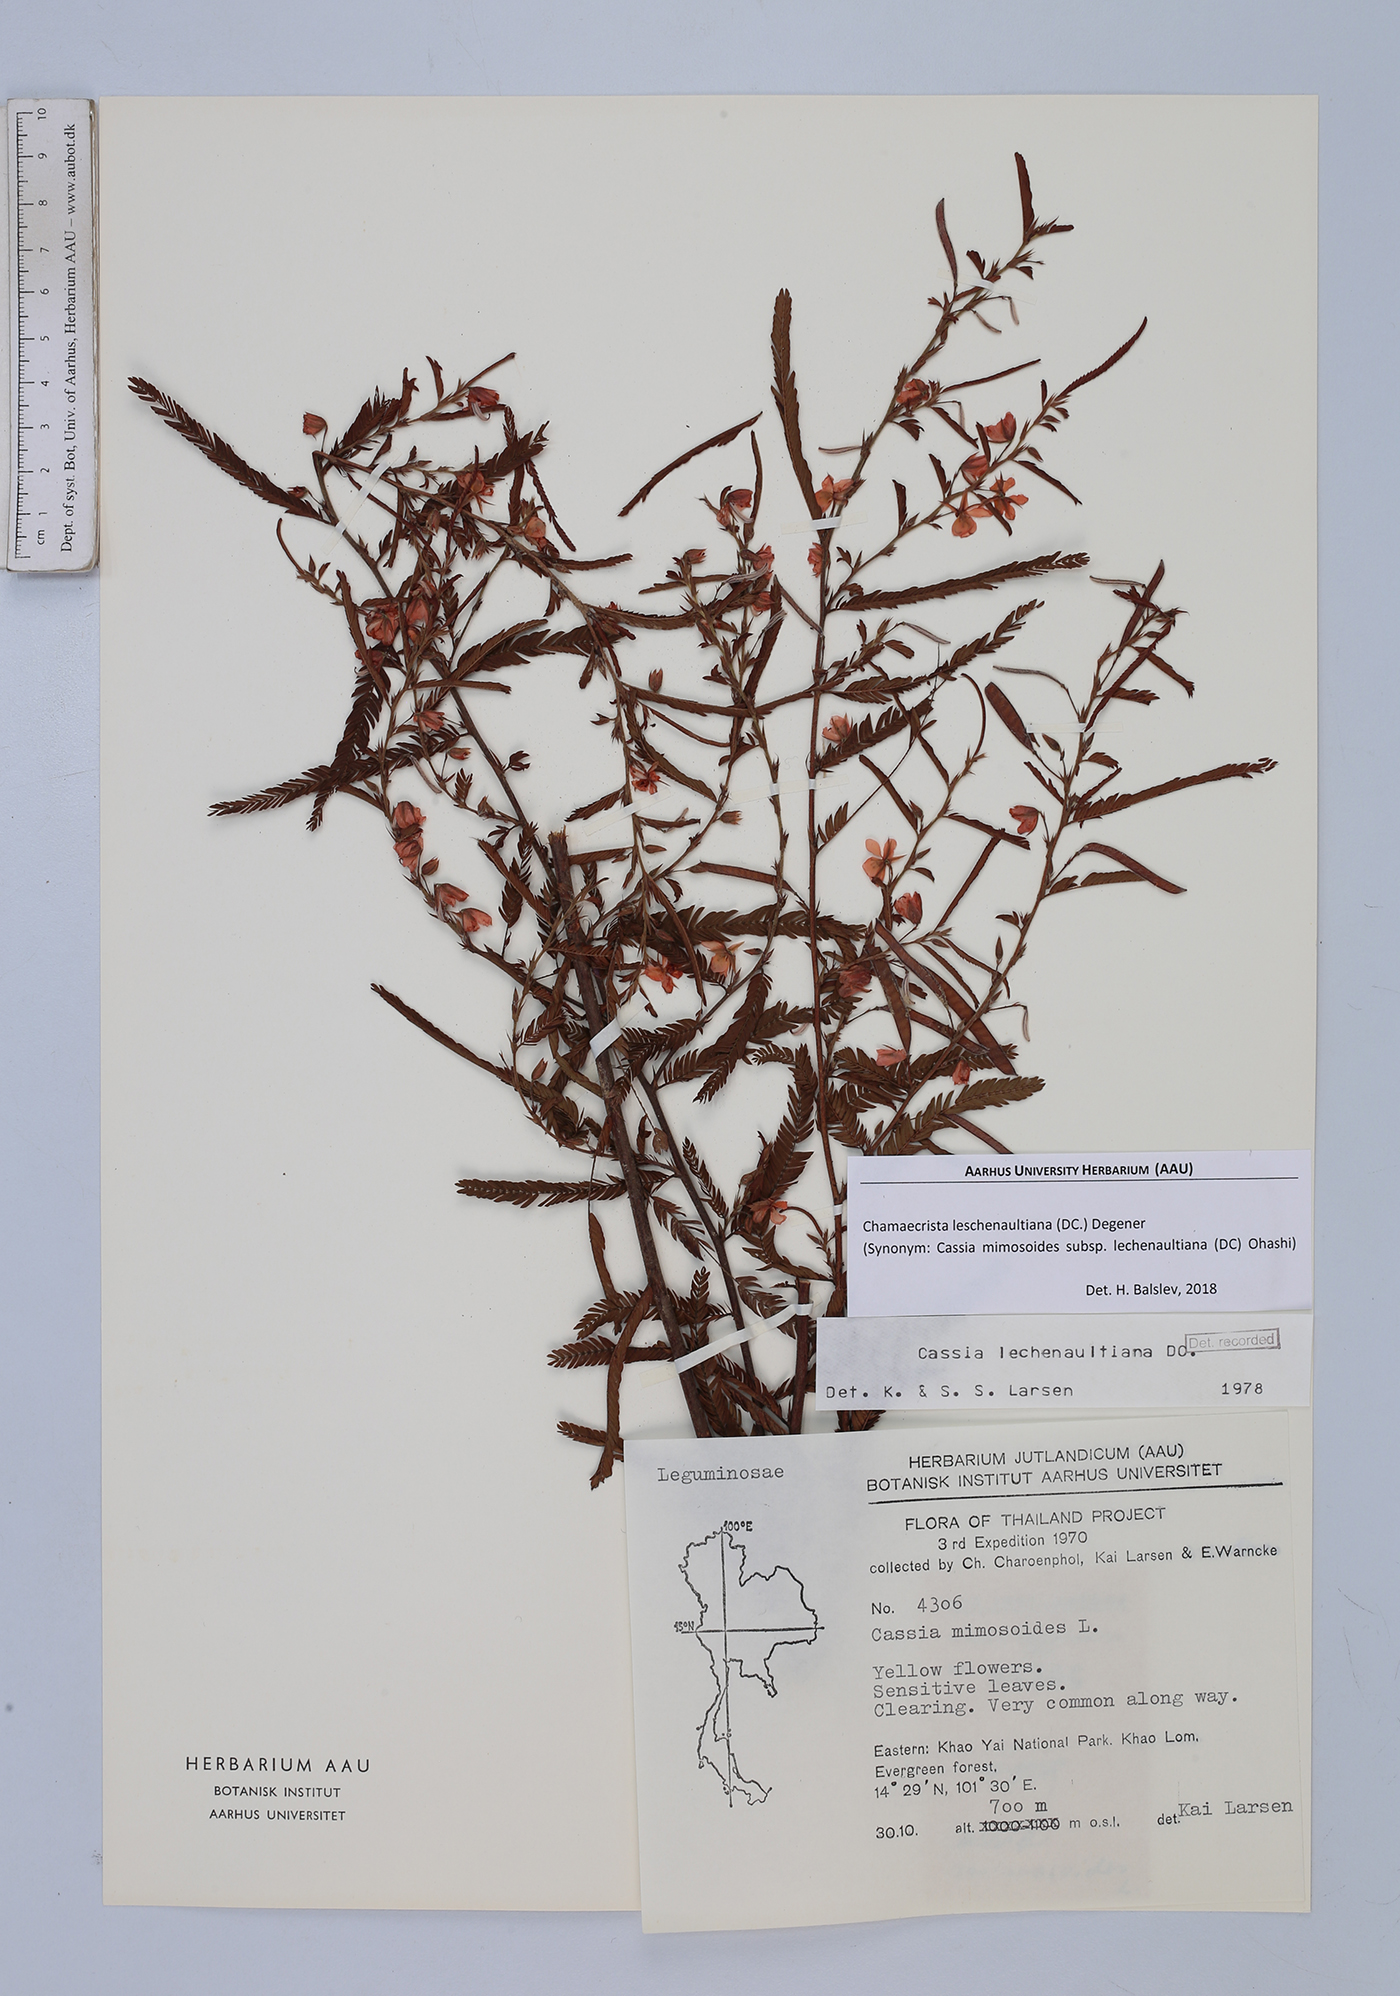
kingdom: Plantae
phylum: Tracheophyta
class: Magnoliopsida
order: Fabales
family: Fabaceae
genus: Chamaecrista
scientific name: Chamaecrista nictitans
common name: Sensitive cassia
